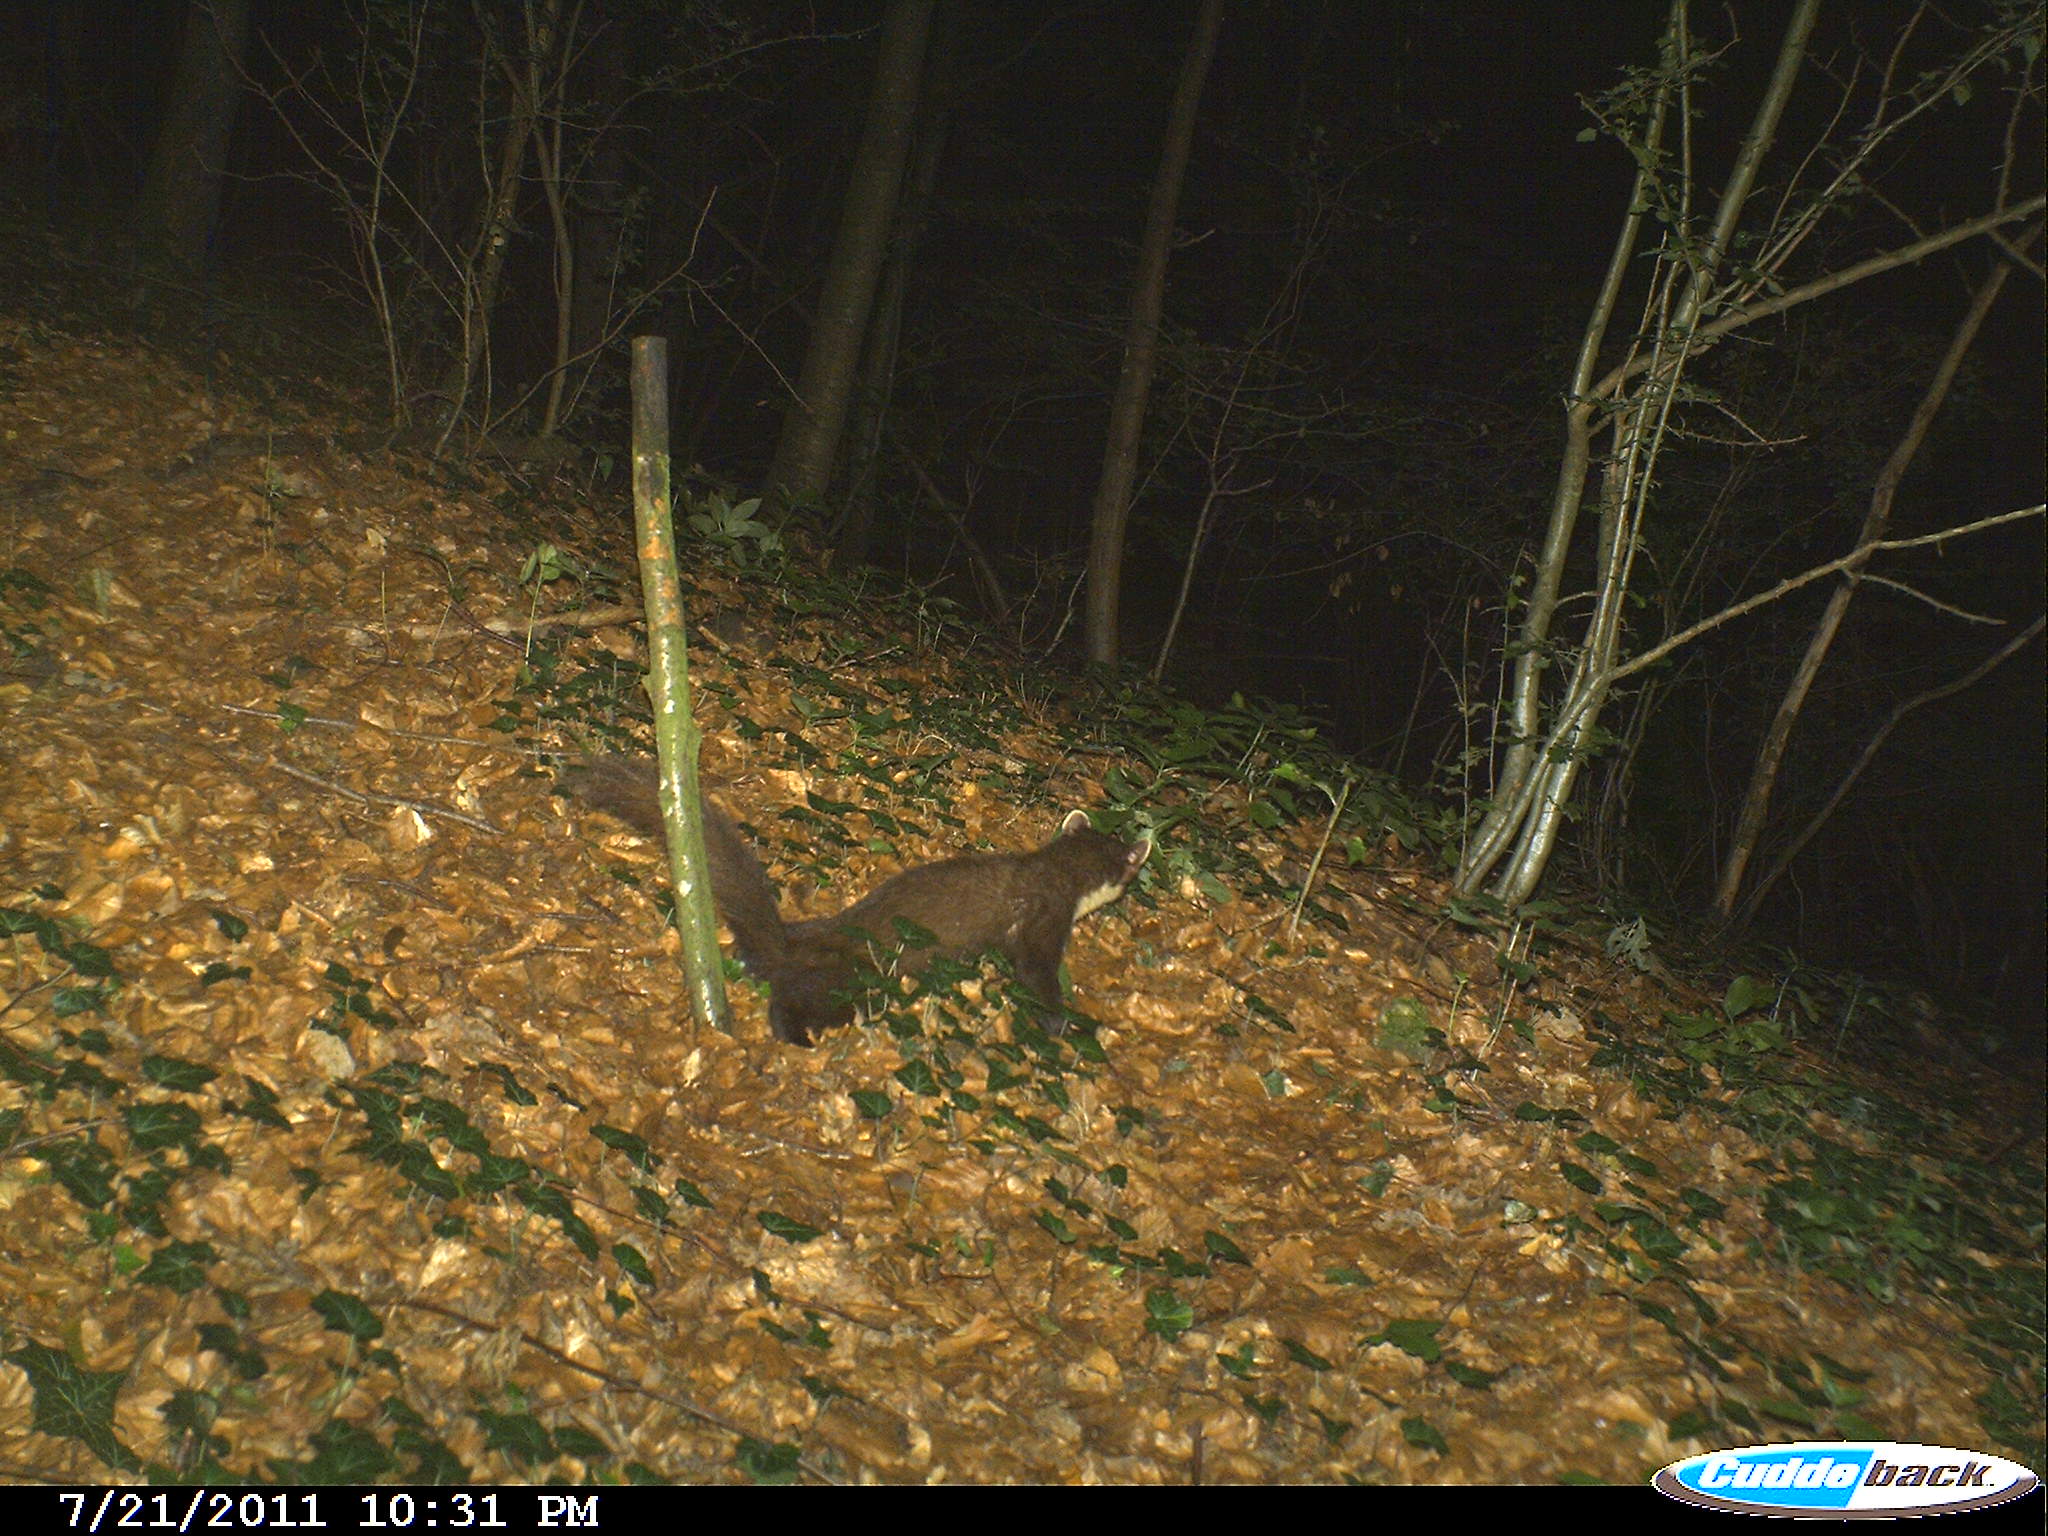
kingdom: Animalia
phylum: Chordata
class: Mammalia
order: Carnivora
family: Mustelidae
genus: Martes
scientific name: Martes martes
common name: European pine marten
